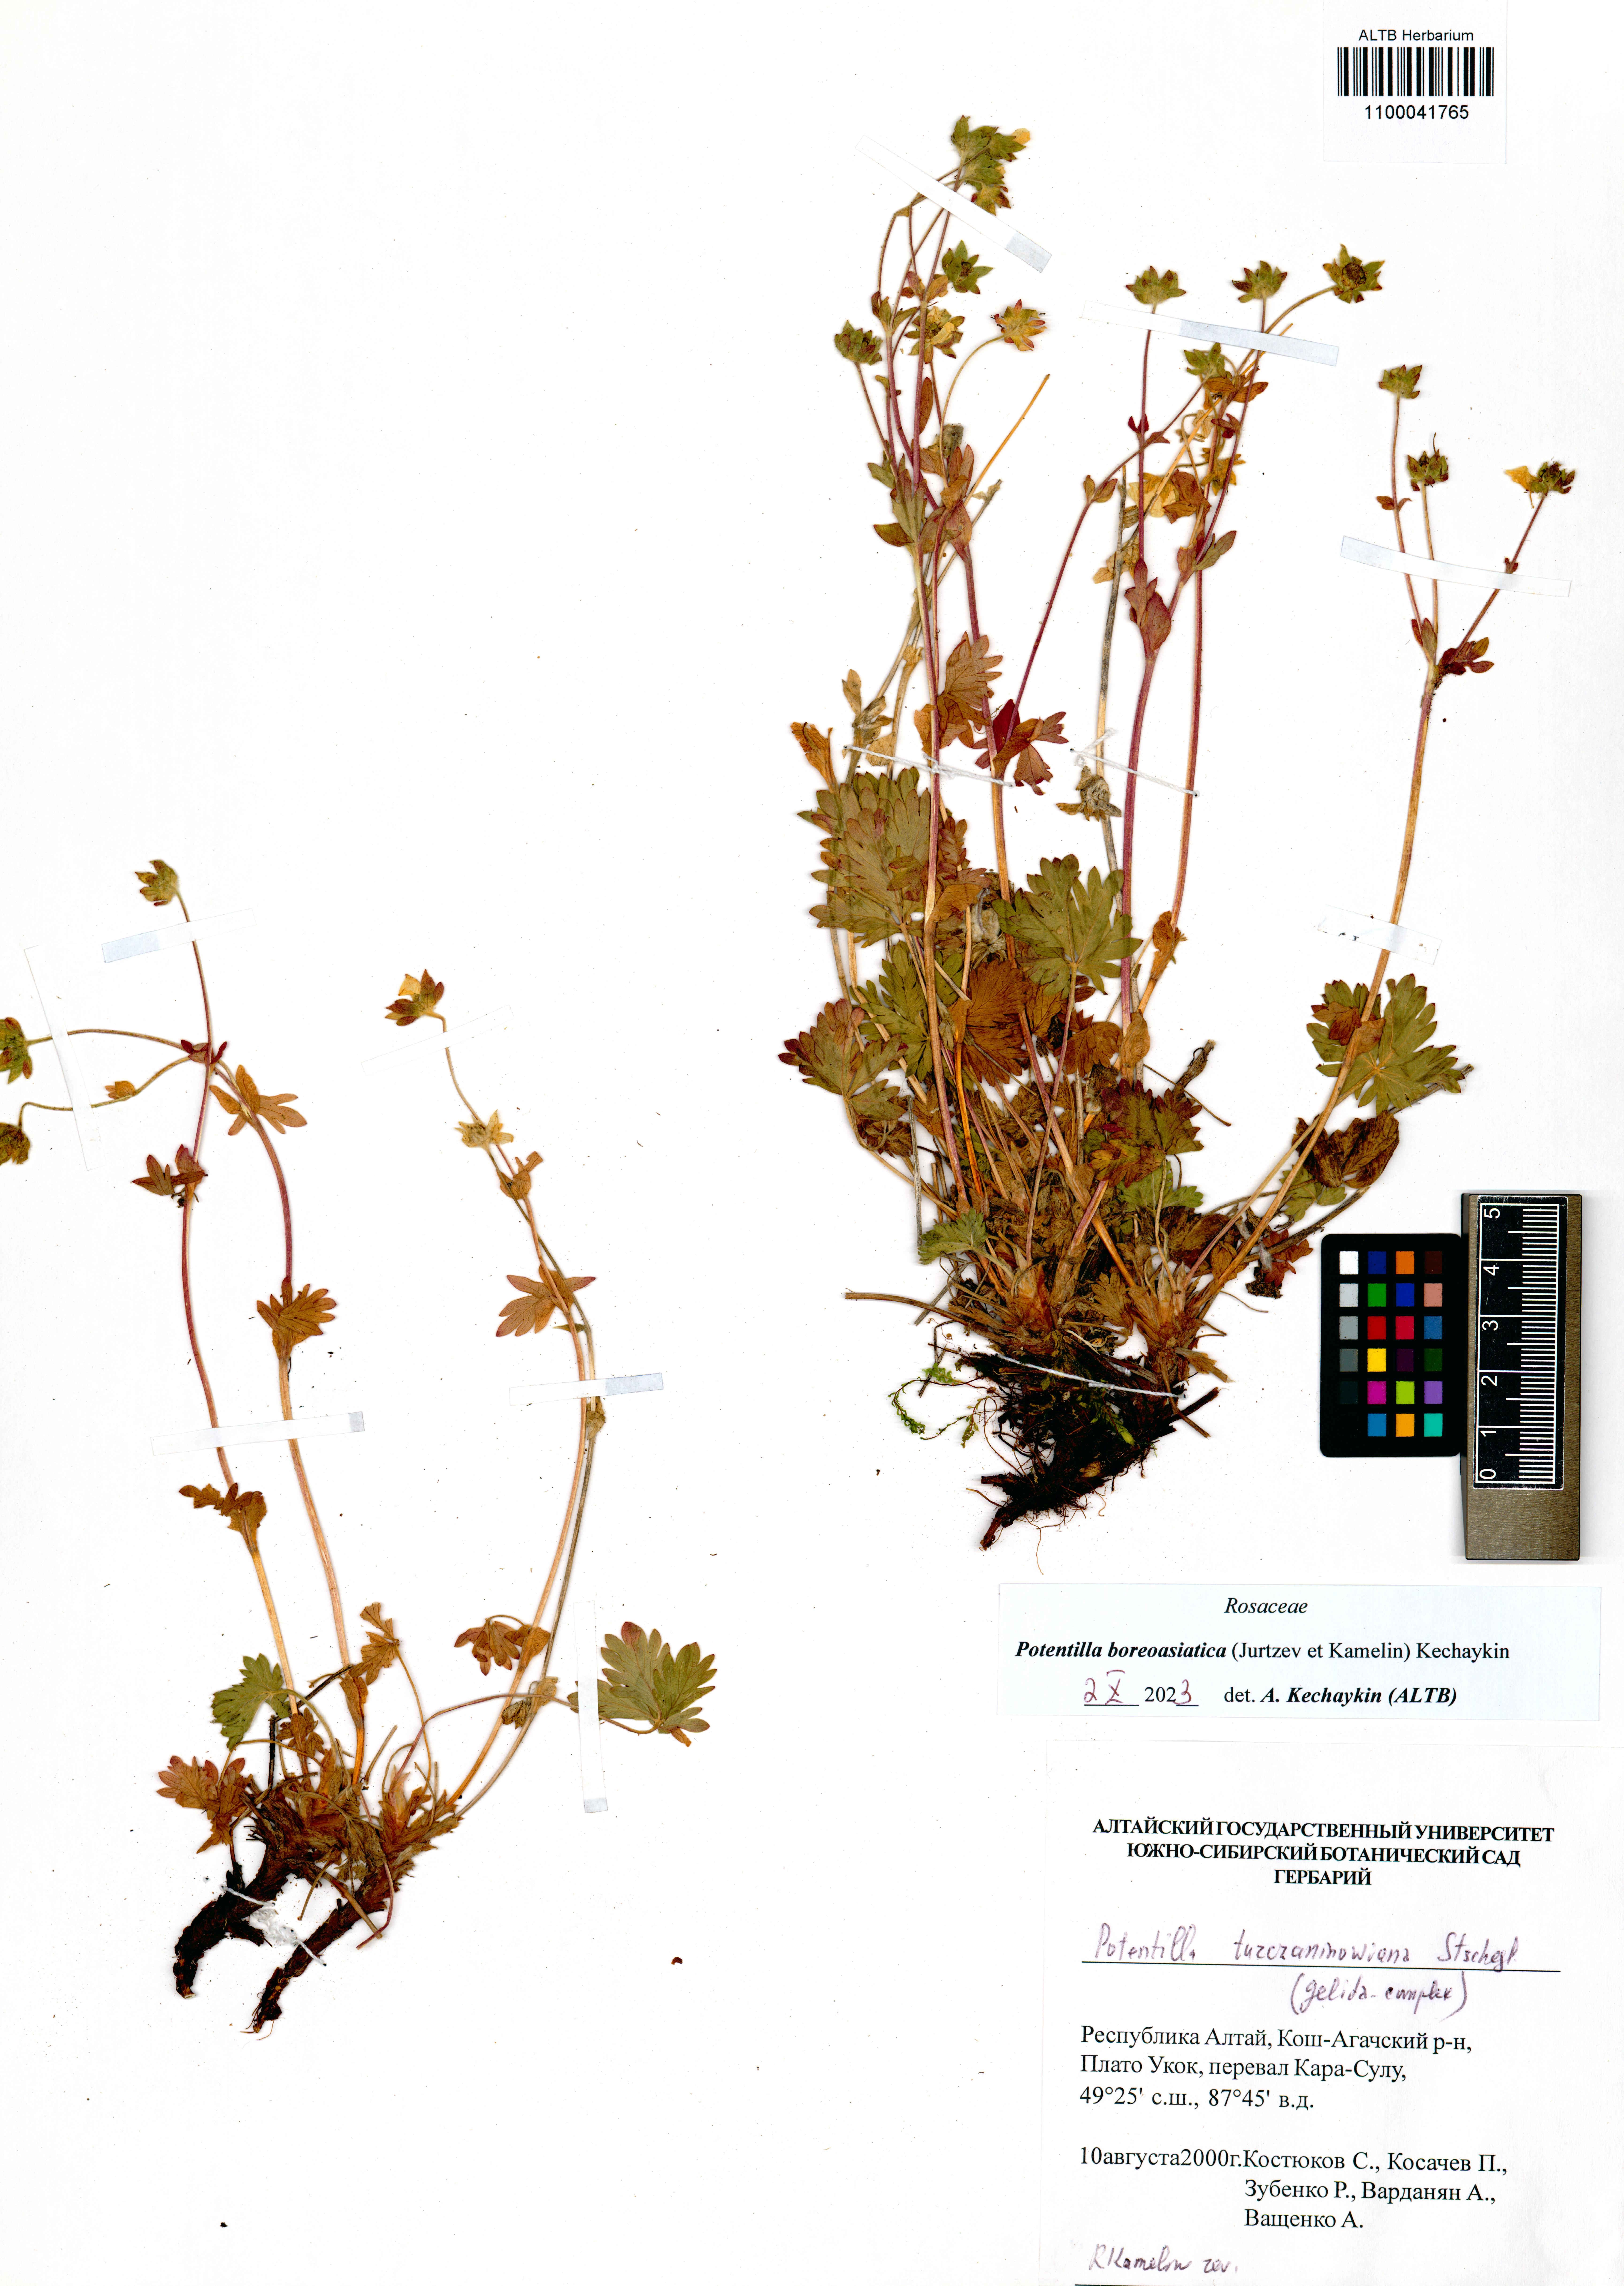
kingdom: Plantae
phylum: Tracheophyta
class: Magnoliopsida
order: Rosales
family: Rosaceae
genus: Potentilla
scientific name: Potentilla
